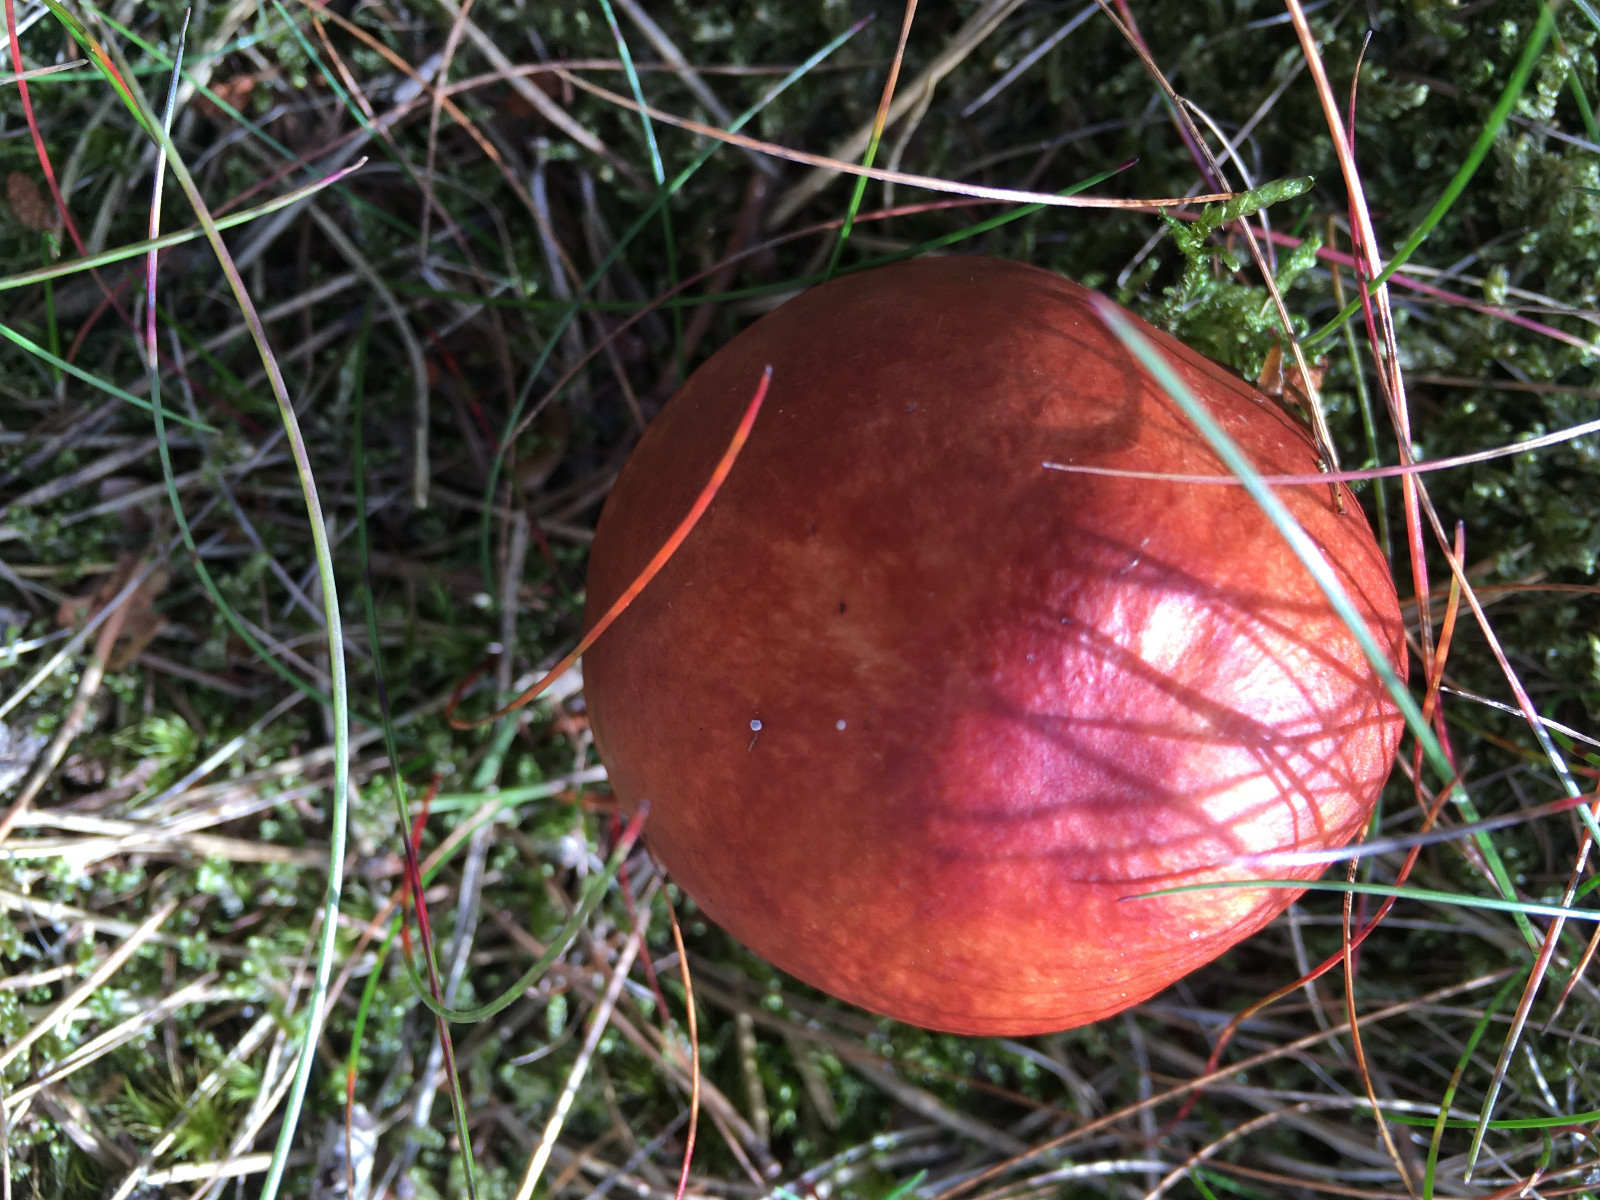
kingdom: Fungi
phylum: Basidiomycota
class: Agaricomycetes
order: Russulales
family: Russulaceae
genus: Russula
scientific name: Russula paludosa
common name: prægtig skørhat
